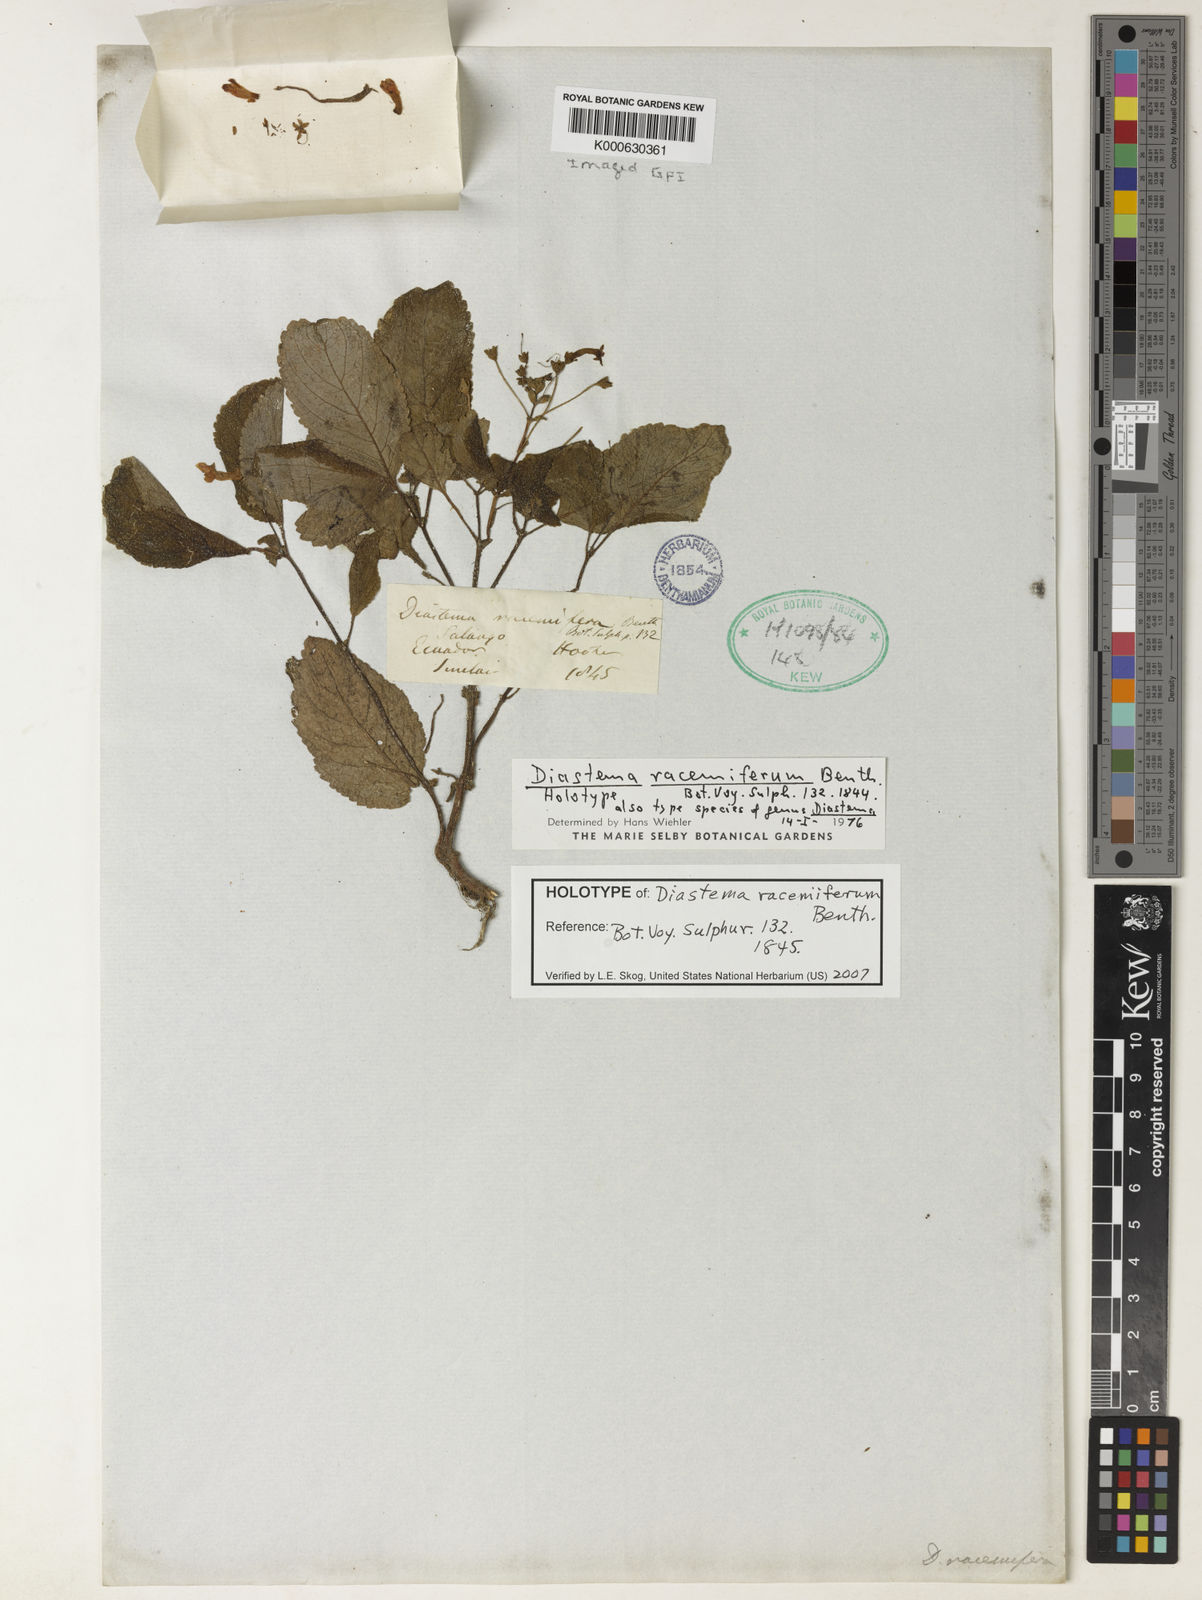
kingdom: Plantae
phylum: Tracheophyta
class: Magnoliopsida
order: Lamiales
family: Gesneriaceae
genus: Diastema
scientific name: Diastema racemiferum
